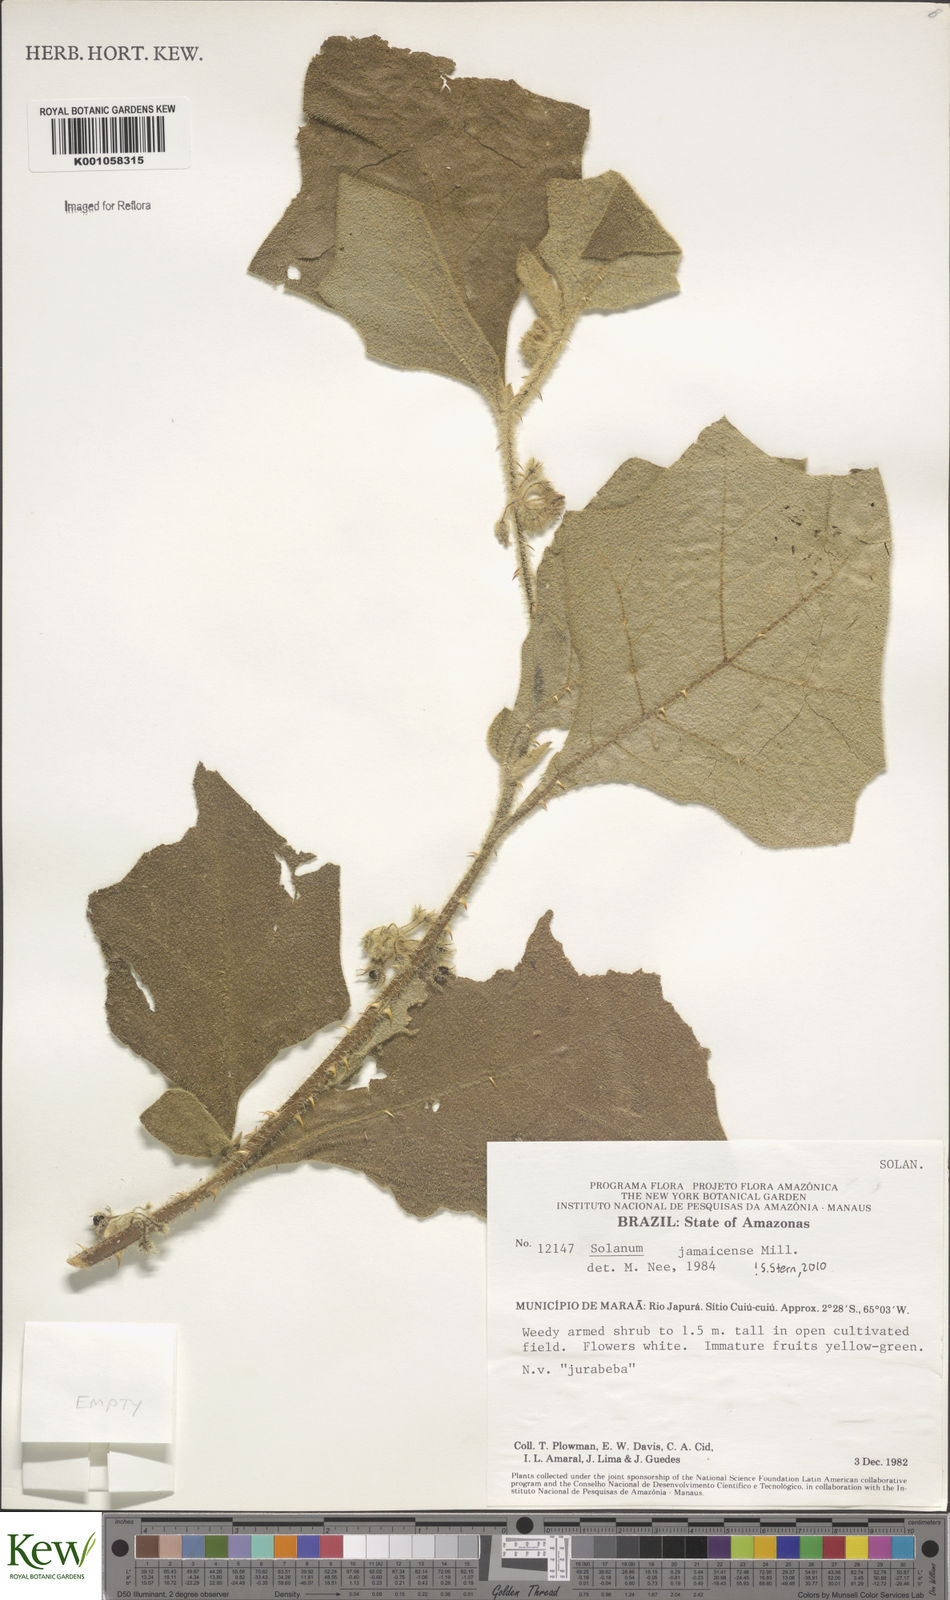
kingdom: Plantae
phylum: Tracheophyta
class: Magnoliopsida
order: Solanales
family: Solanaceae
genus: Solanum
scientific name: Solanum jamaicense
